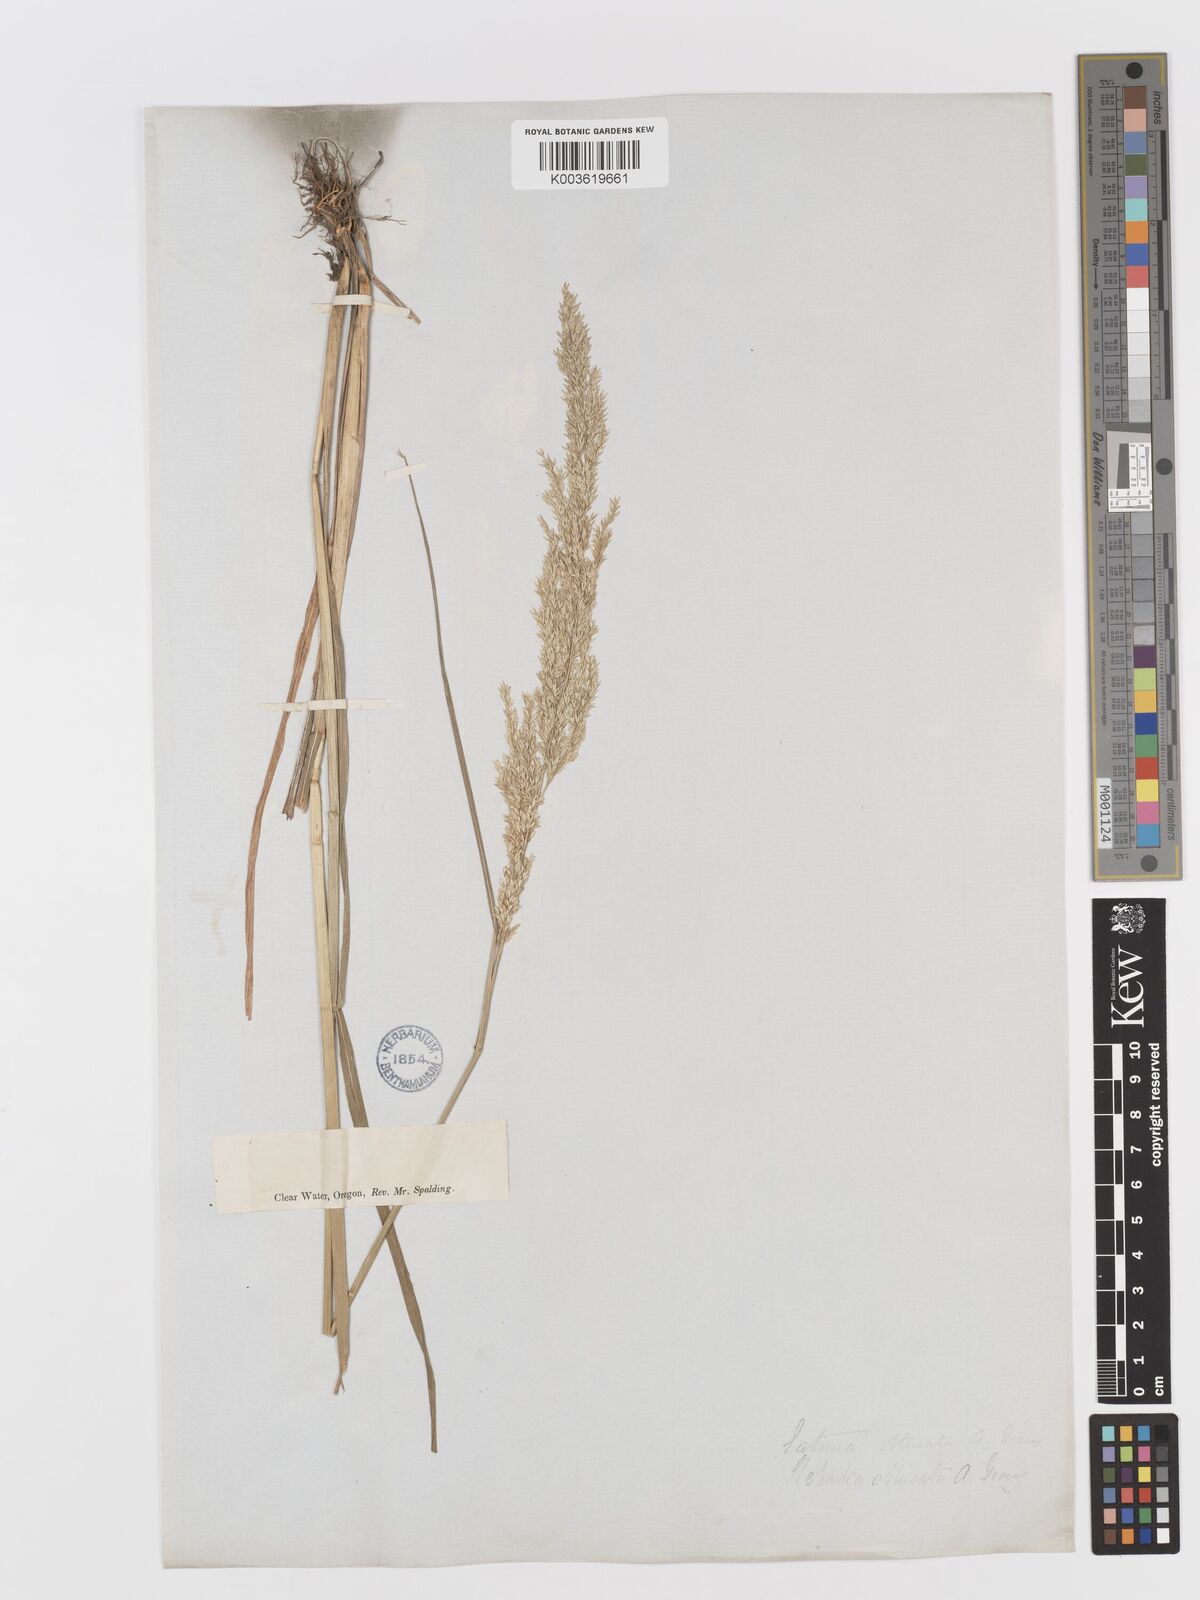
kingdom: Plantae
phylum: Tracheophyta
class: Liliopsida
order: Poales
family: Poaceae
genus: Sphenopholis
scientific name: Sphenopholis obtusata
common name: Prairie grass
